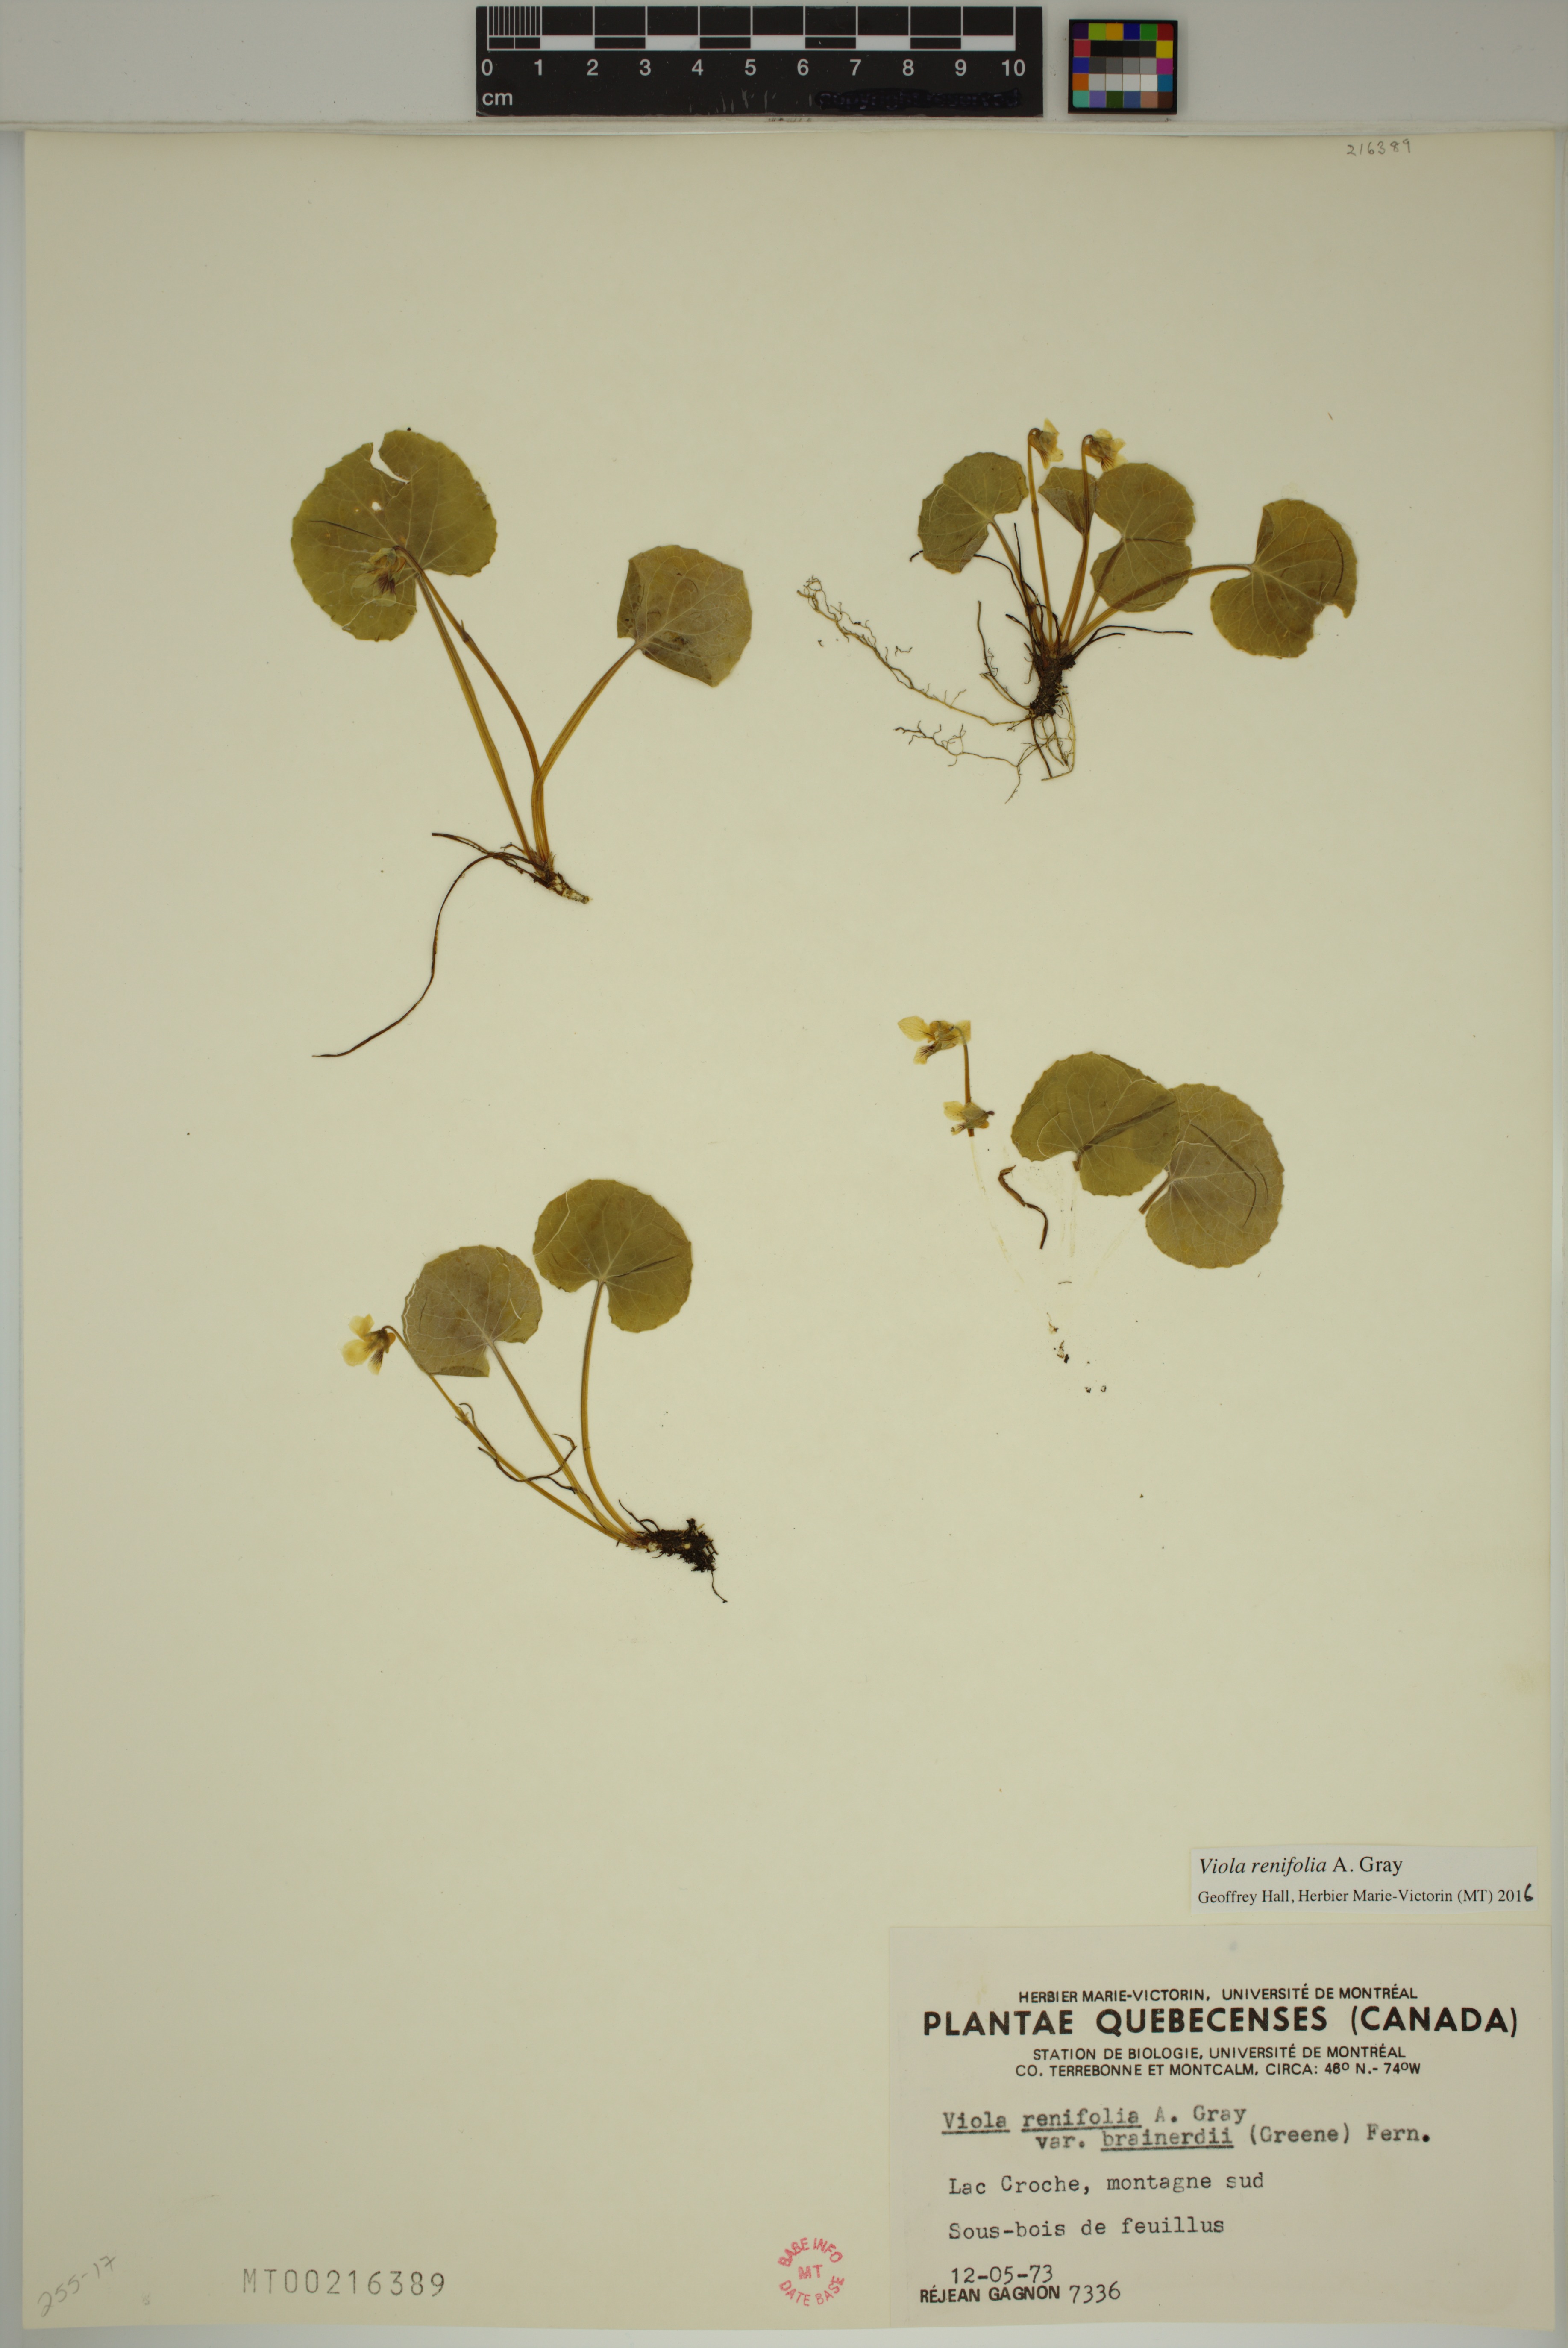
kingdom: Plantae
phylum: Tracheophyta
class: Magnoliopsida
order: Malpighiales
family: Violaceae
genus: Viola
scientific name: Viola renifolia
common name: Kidney-leaf violet
